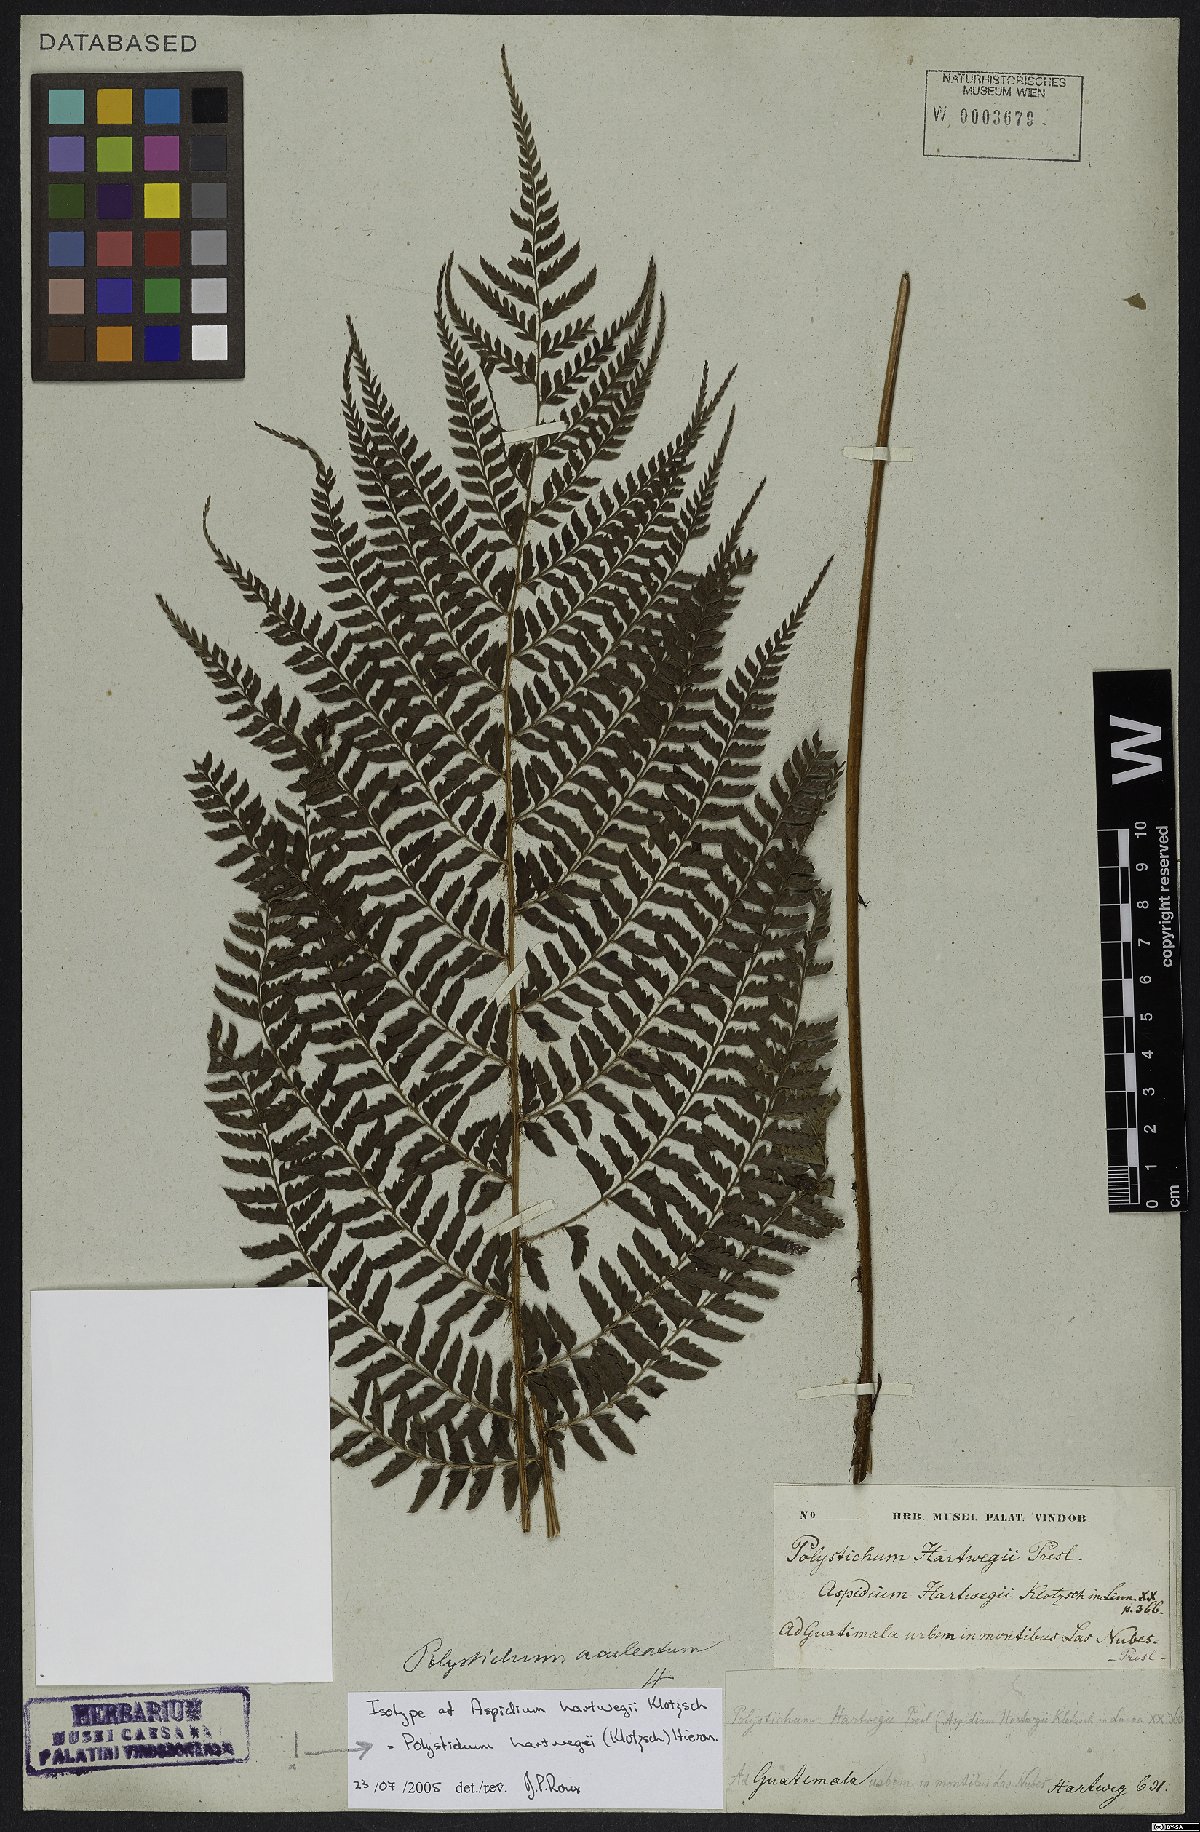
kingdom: Plantae
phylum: Tracheophyta
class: Polypodiopsida
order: Polypodiales
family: Dryopteridaceae
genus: Polystichum
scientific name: Polystichum hartwegii
